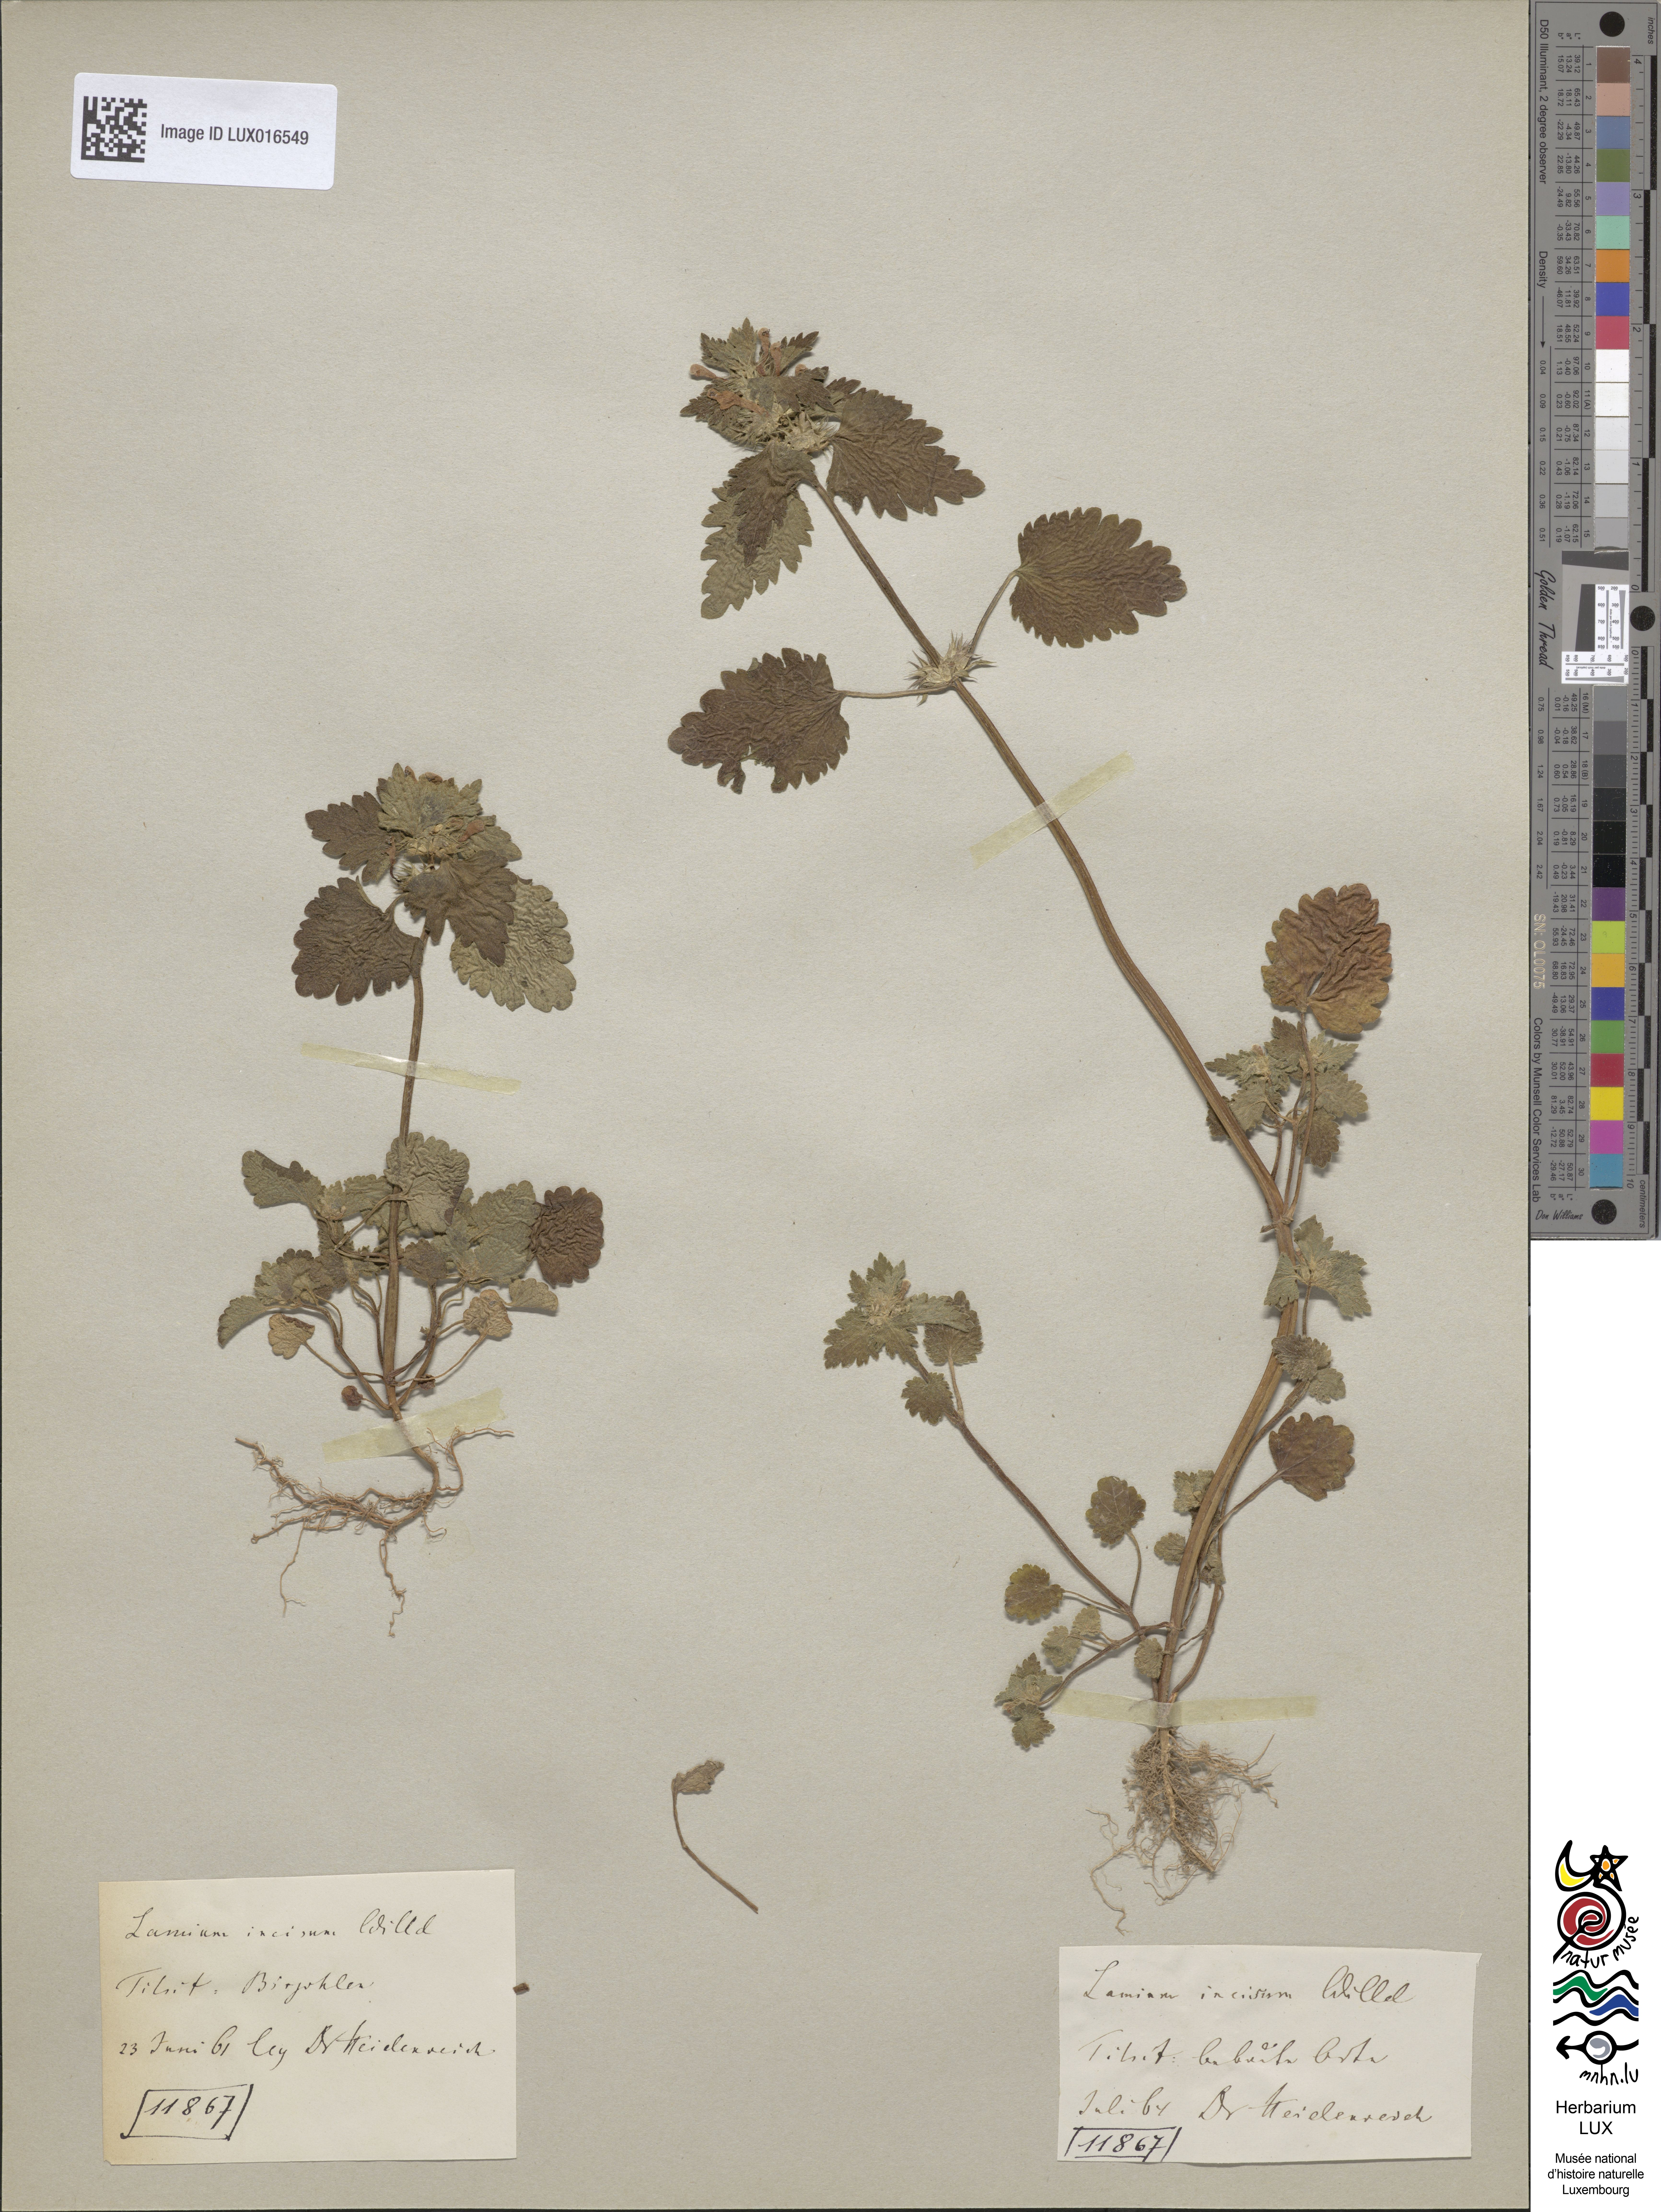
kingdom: Plantae
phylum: Tracheophyta
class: Magnoliopsida
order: Lamiales
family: Lamiaceae
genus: Lamium
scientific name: Lamium hybridum
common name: Cut-leaved dead-nettle
